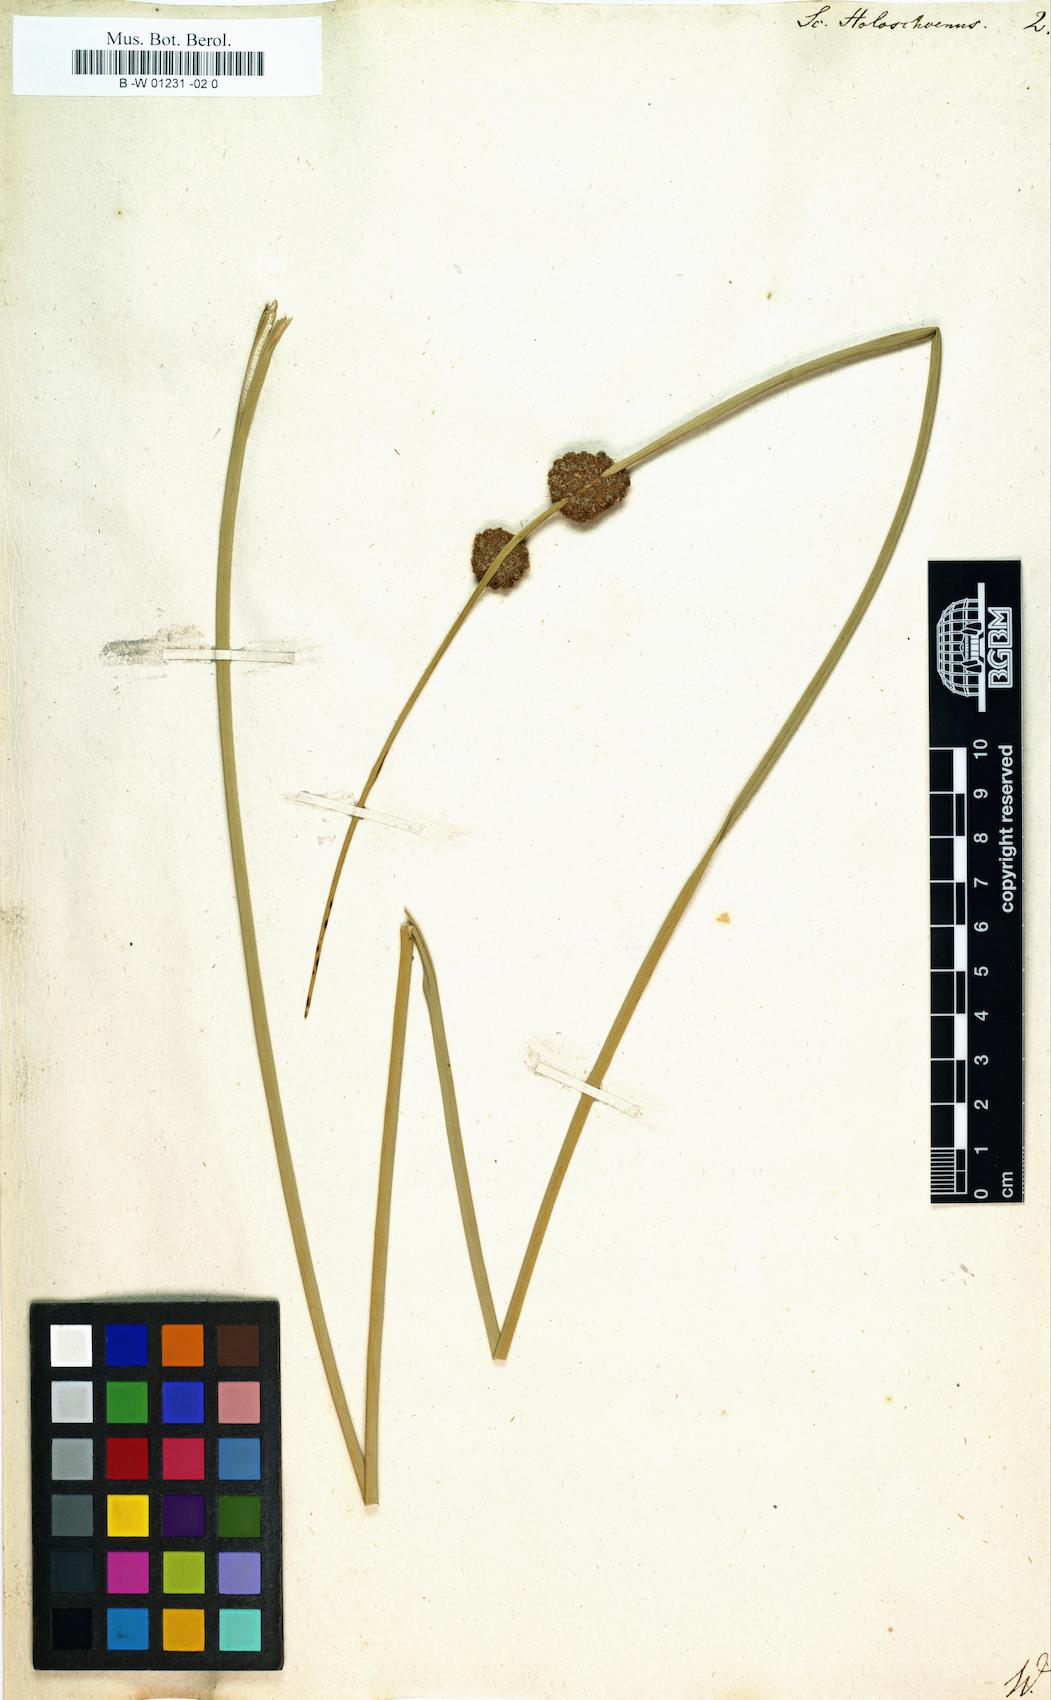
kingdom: Plantae
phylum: Tracheophyta
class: Liliopsida
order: Poales
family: Cyperaceae
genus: Scirpus
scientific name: Scirpus holoschoenus
